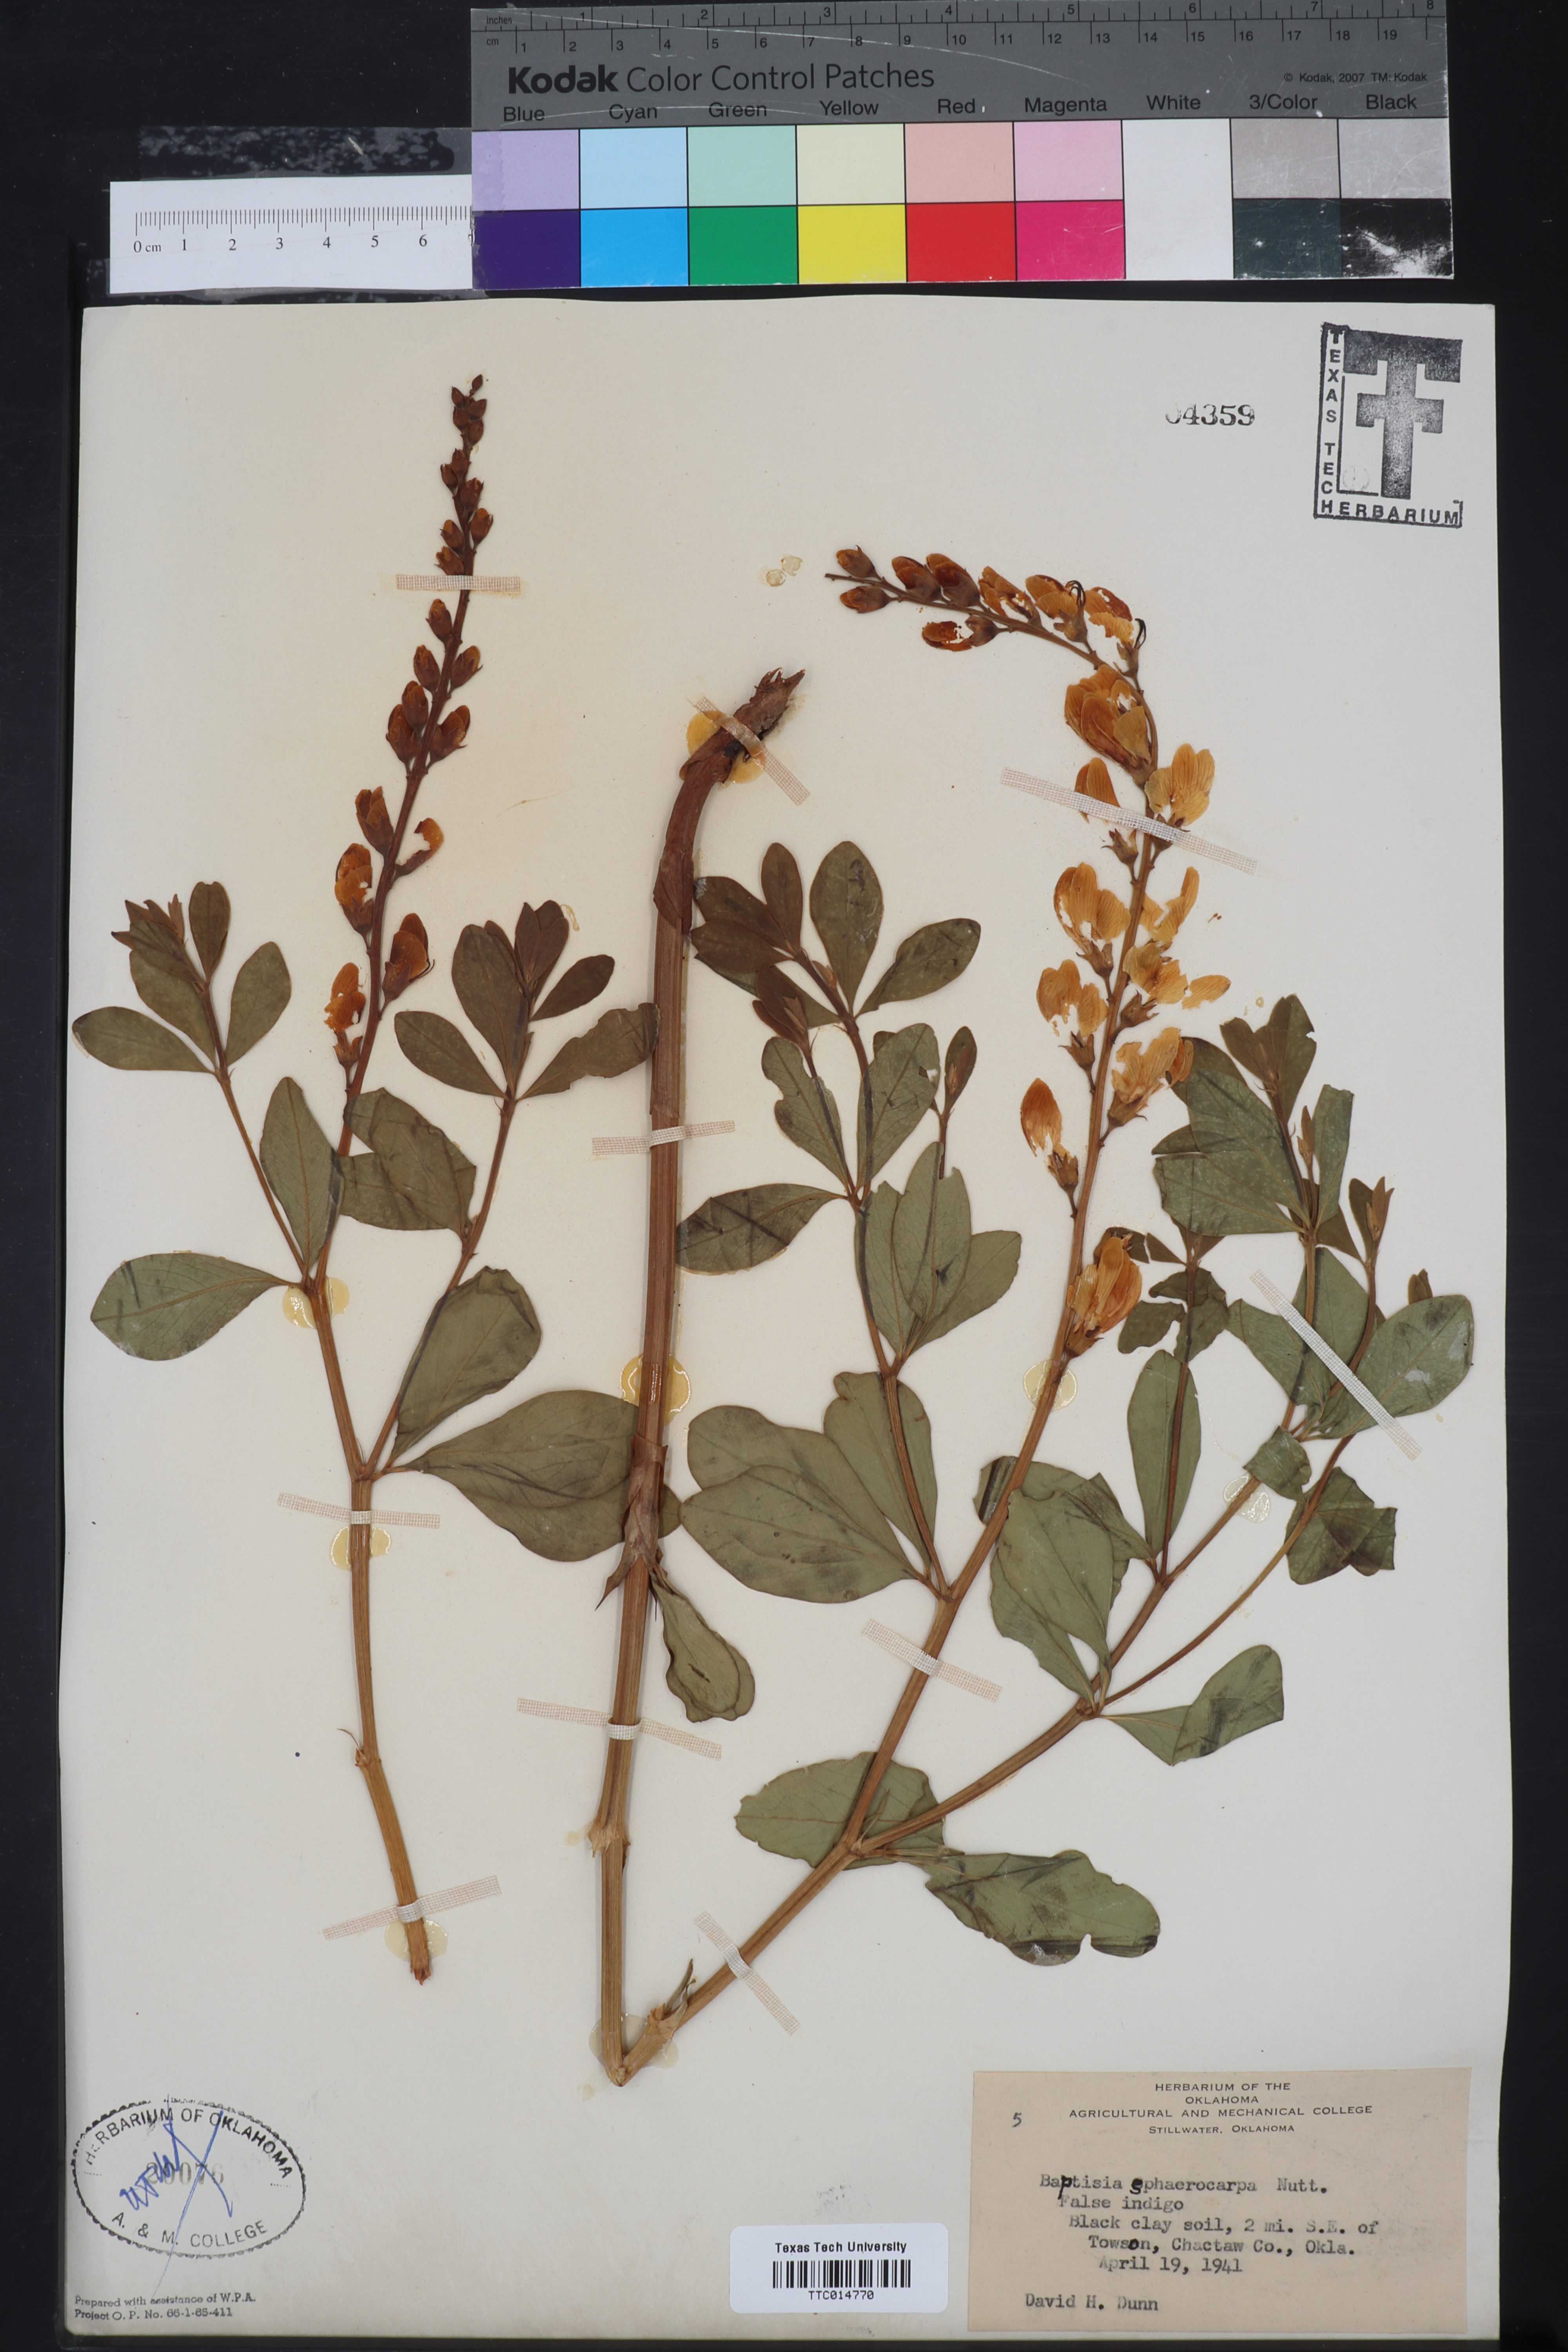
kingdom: Plantae
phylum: Tracheophyta
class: Magnoliopsida
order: Fabales
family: Fabaceae
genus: Baptisia
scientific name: Baptisia sphaerocarpa
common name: Round wild indigo
